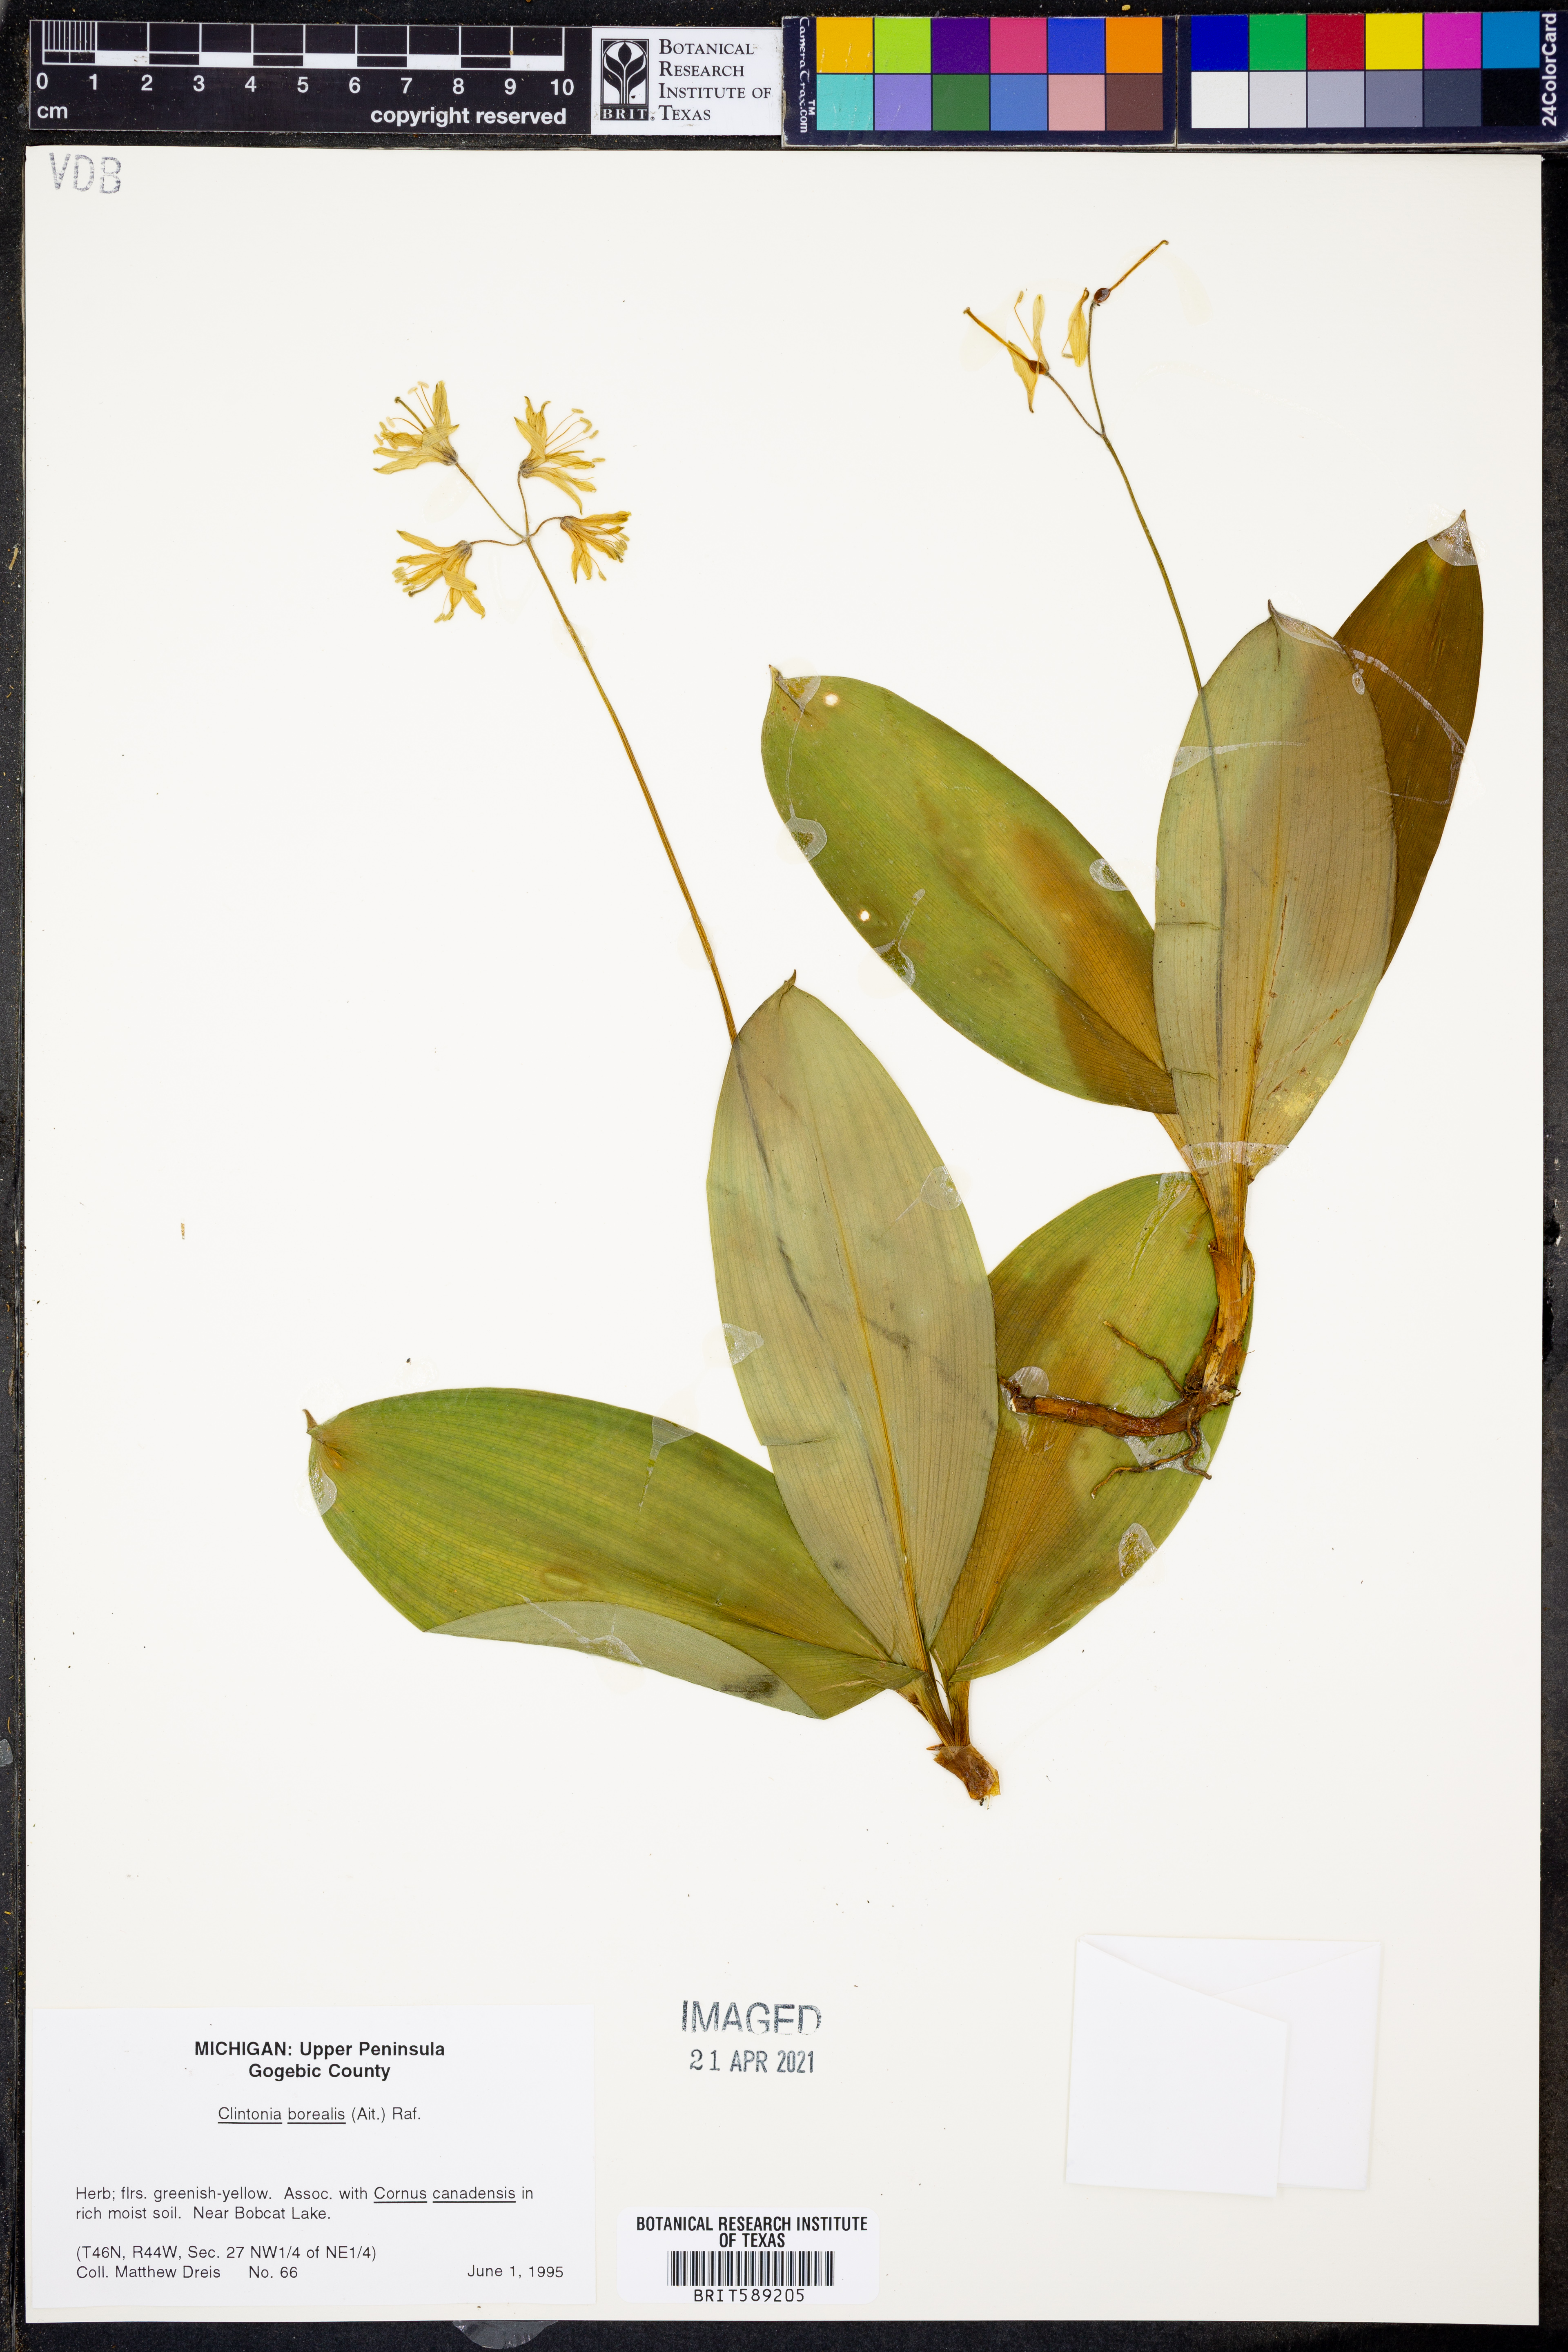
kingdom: Plantae
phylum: Tracheophyta
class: Liliopsida
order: Liliales
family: Liliaceae
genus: Clintonia
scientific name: Clintonia borealis
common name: Yellow clintonia
